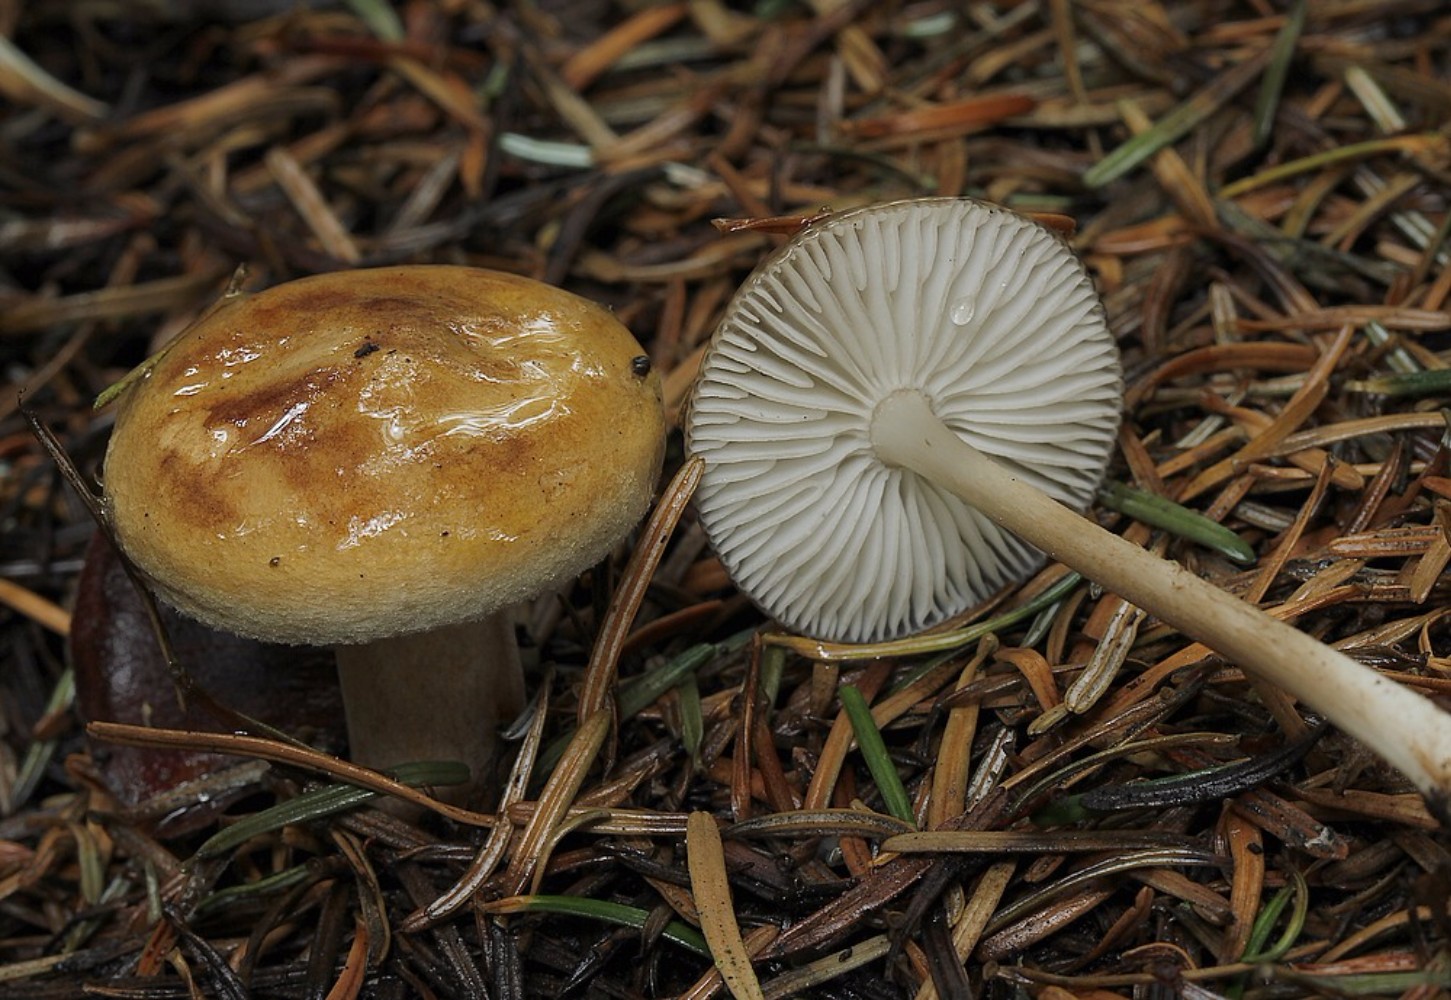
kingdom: Fungi
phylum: Basidiomycota
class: Agaricomycetes
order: Agaricales
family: Physalacriaceae
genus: Hymenopellis
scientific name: Hymenopellis radicata
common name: almindelig pælerodshat
